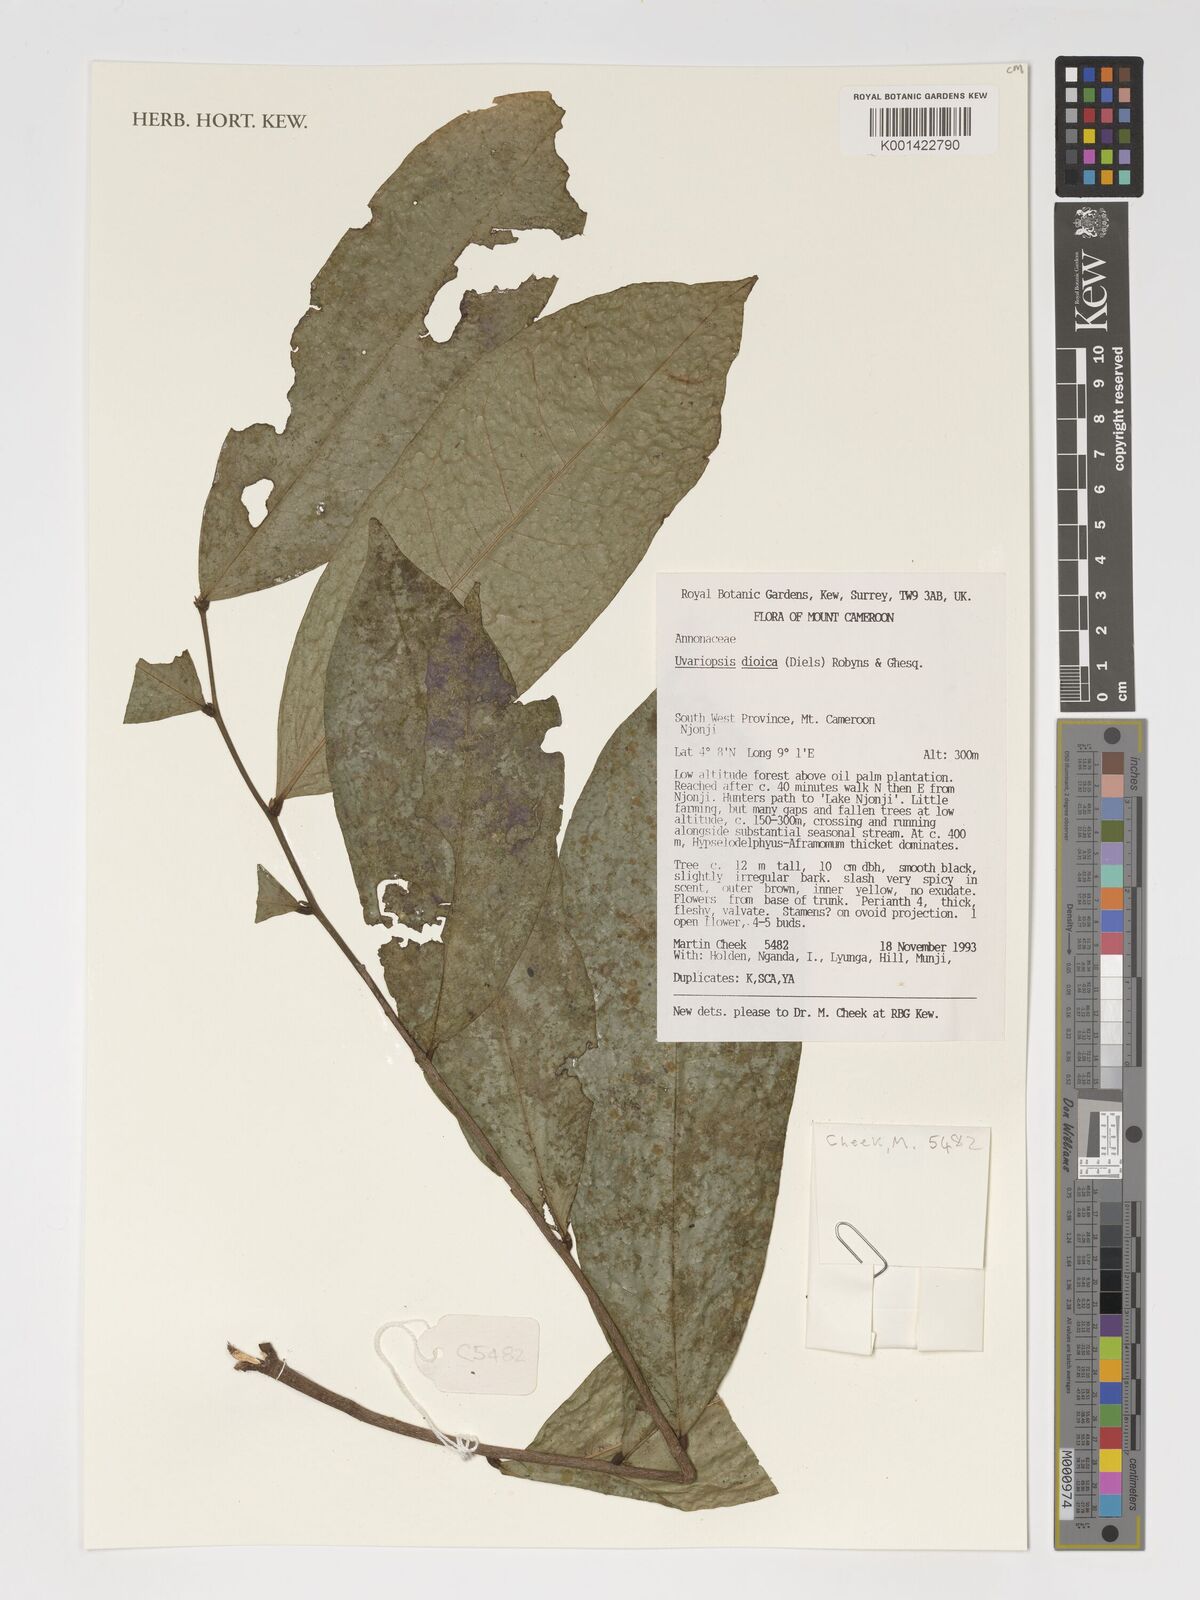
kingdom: Plantae
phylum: Tracheophyta
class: Magnoliopsida
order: Magnoliales
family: Annonaceae
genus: Uvariopsis
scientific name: Uvariopsis dioica
